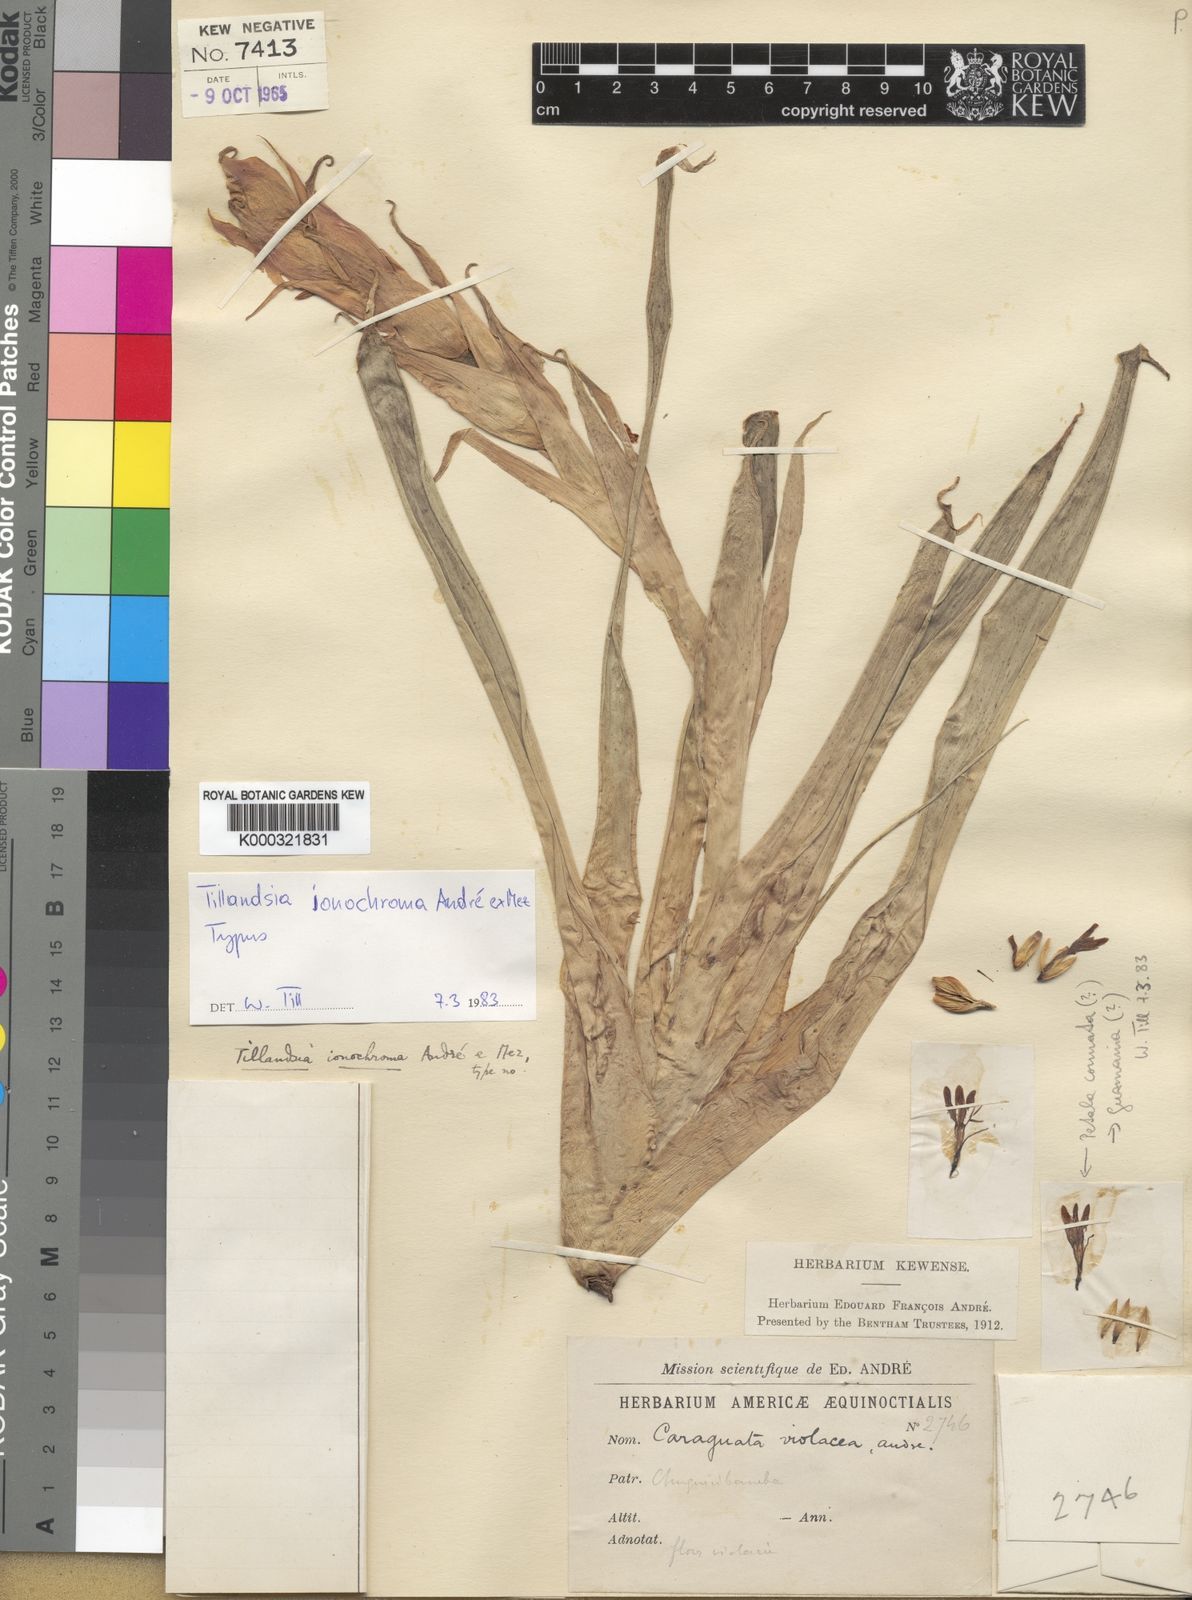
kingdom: Plantae
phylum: Tracheophyta
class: Liliopsida
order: Poales
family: Bromeliaceae
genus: Tillandsia
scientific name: Tillandsia ionochroma
